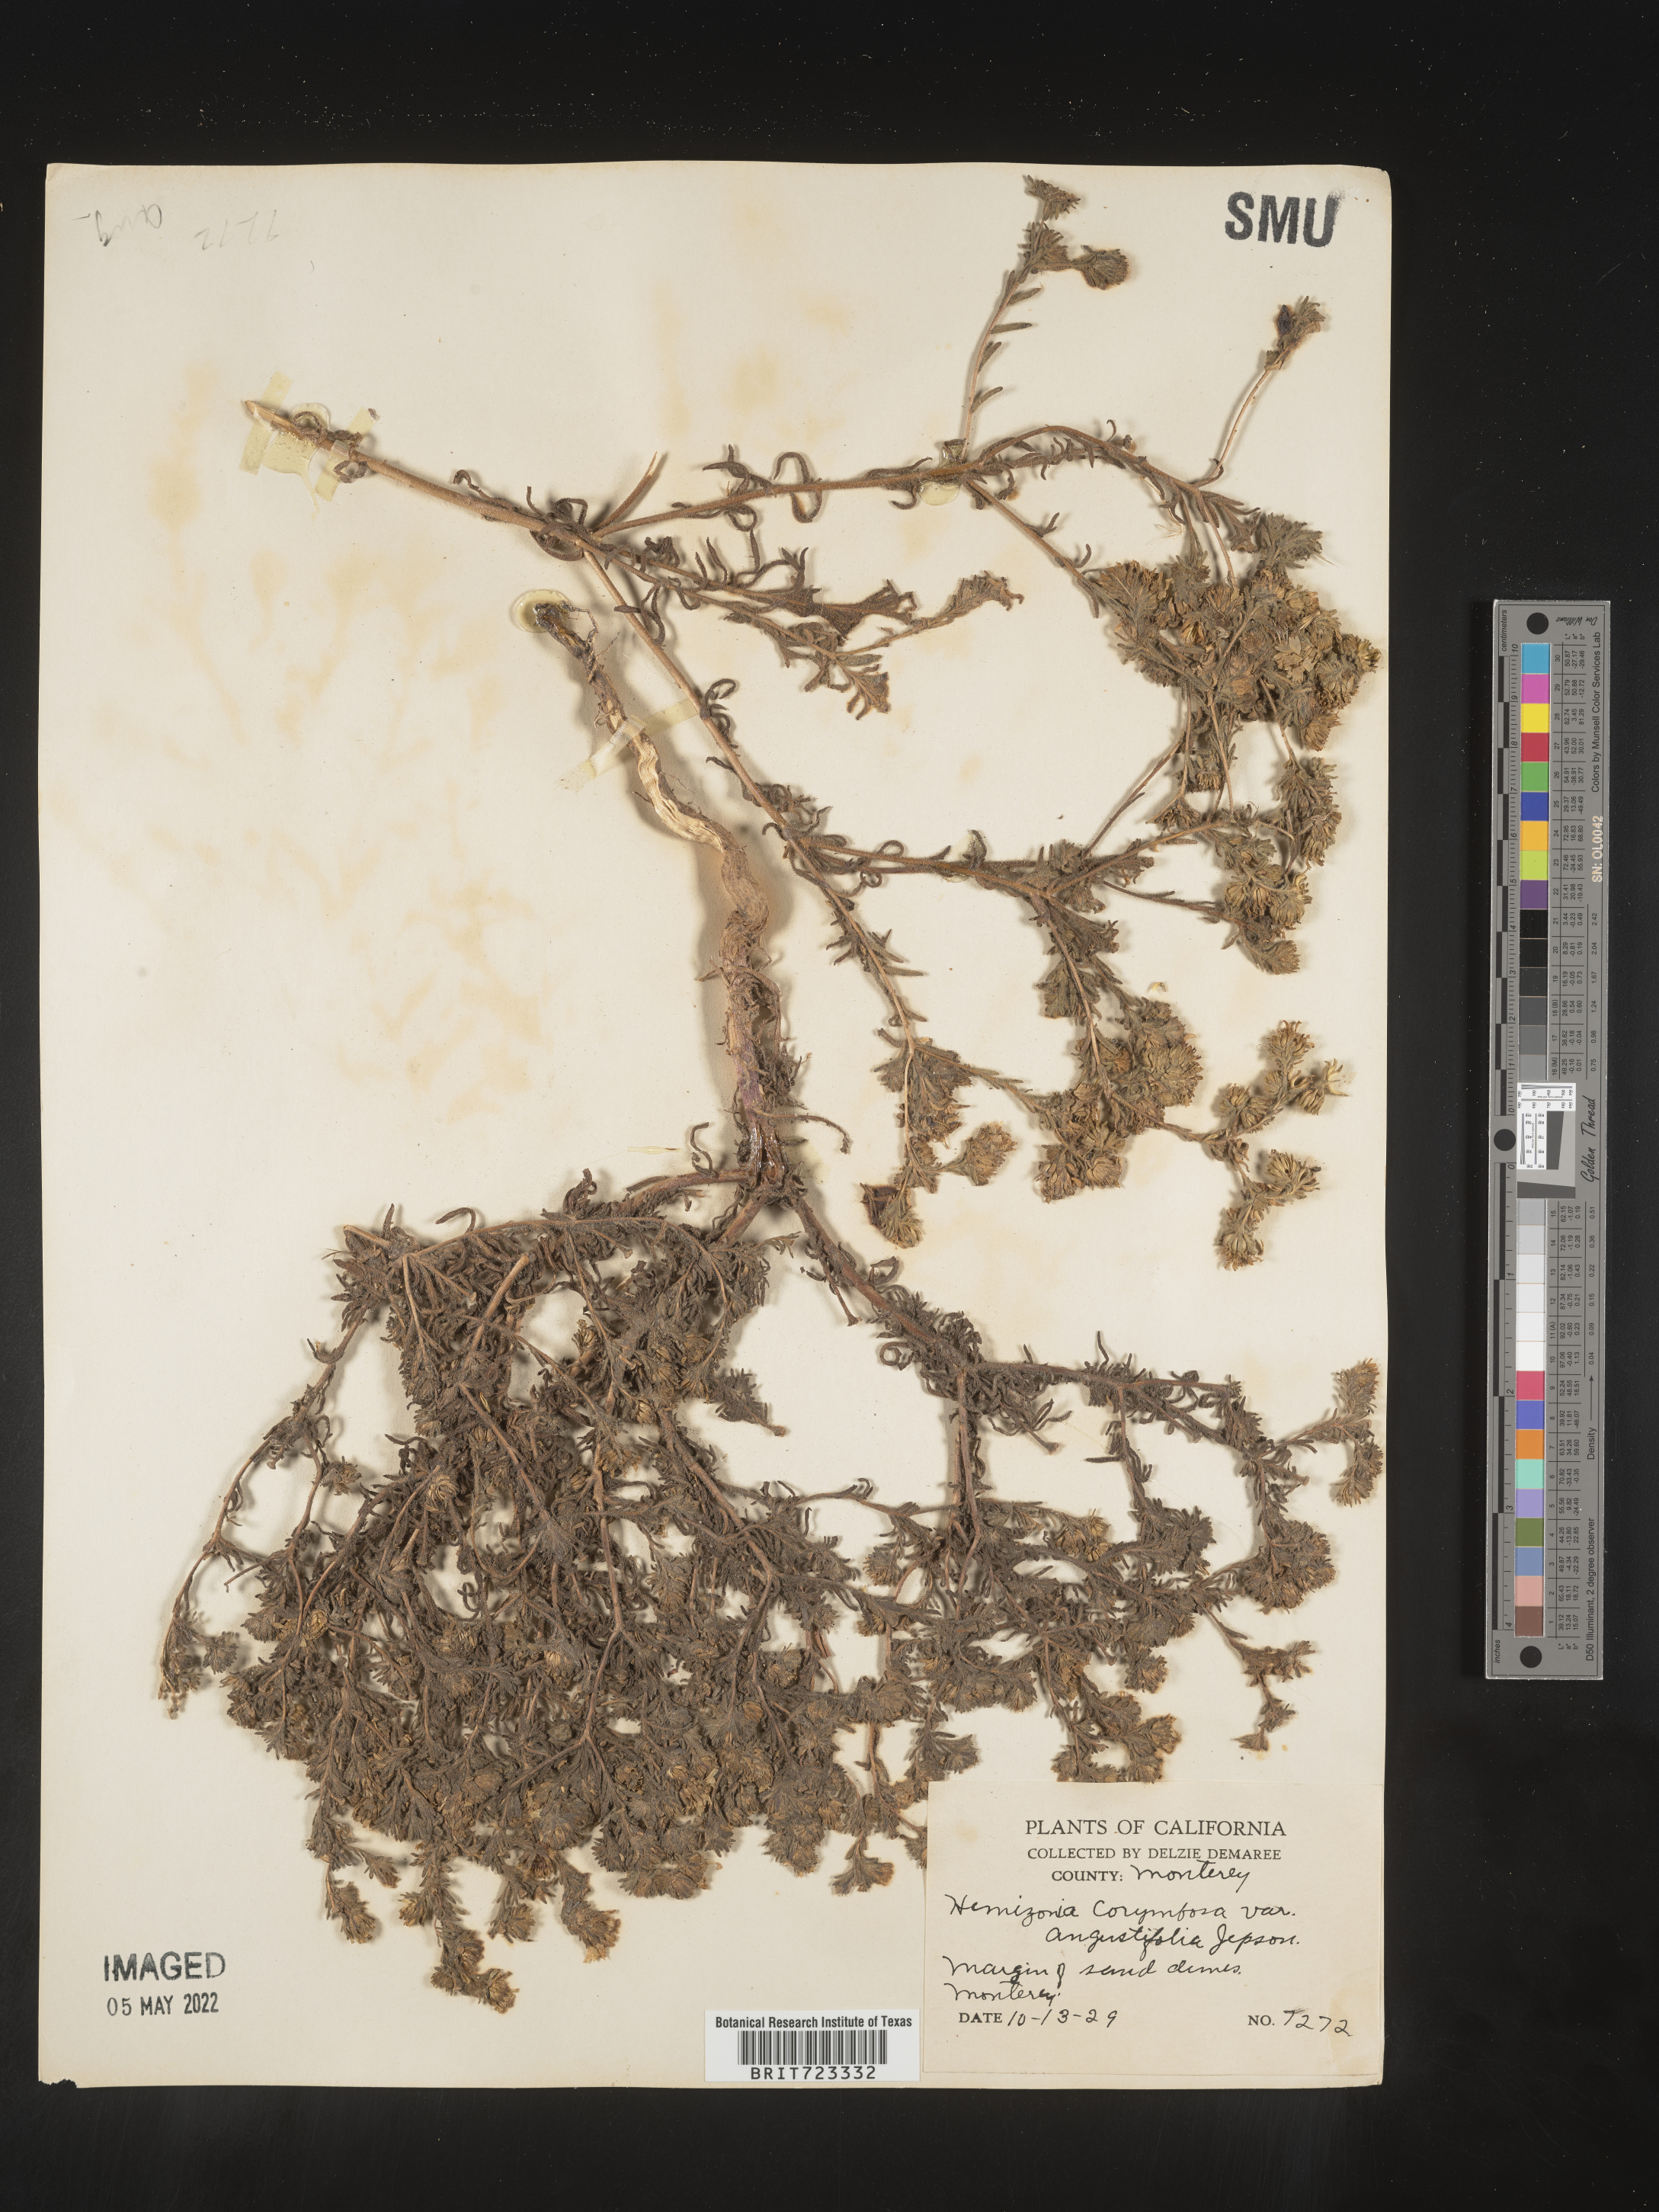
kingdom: Plantae
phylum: Tracheophyta
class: Magnoliopsida
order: Asterales
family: Asteraceae
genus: Hemizonia
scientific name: Hemizonia
